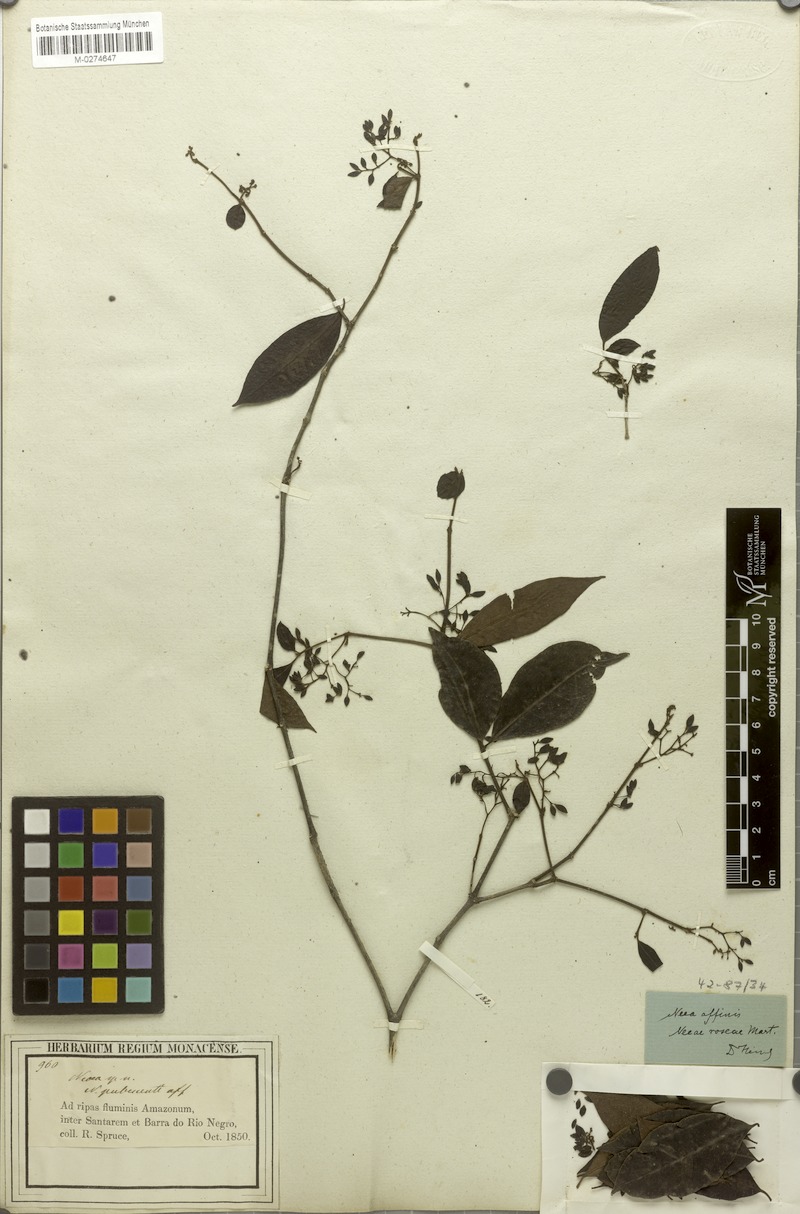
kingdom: Plantae
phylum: Tracheophyta
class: Magnoliopsida
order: Caryophyllales
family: Nyctaginaceae
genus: Neea
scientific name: Neea subpubescens
